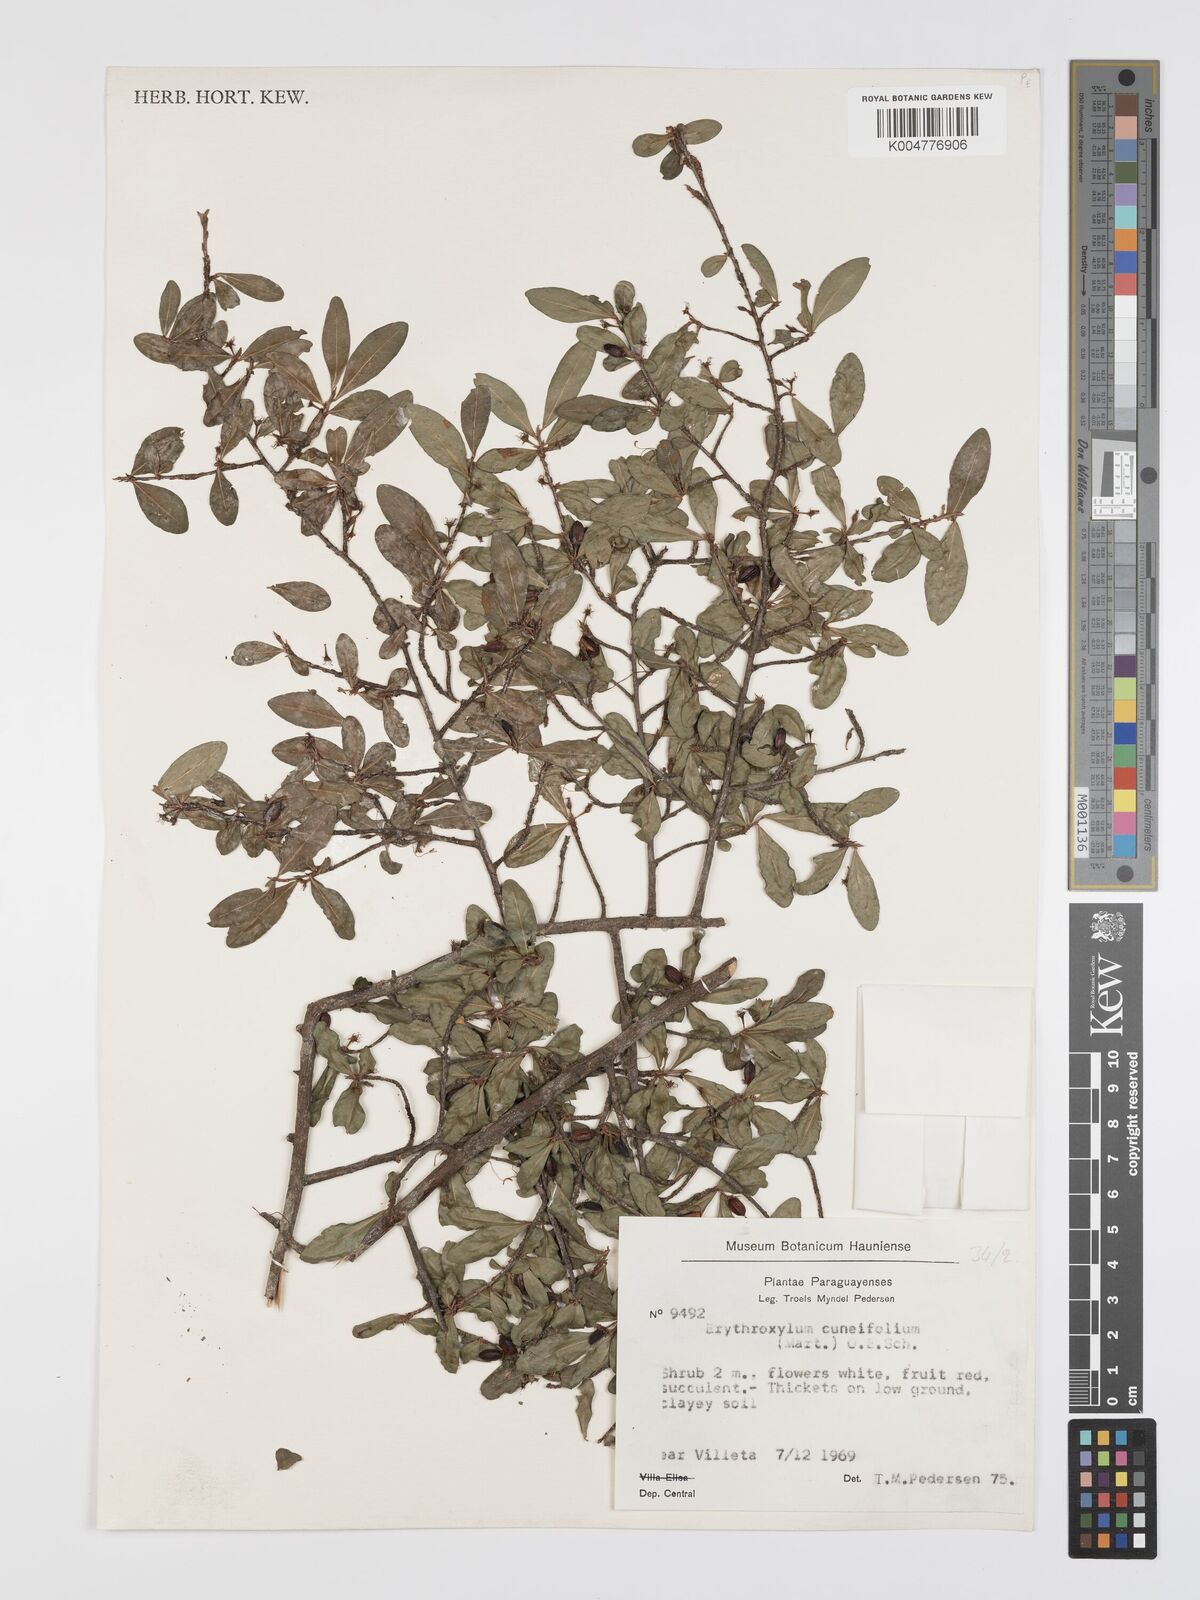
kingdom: Plantae
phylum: Tracheophyta
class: Magnoliopsida
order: Malpighiales
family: Erythroxylaceae
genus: Erythroxylum
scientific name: Erythroxylum cuneifolium
